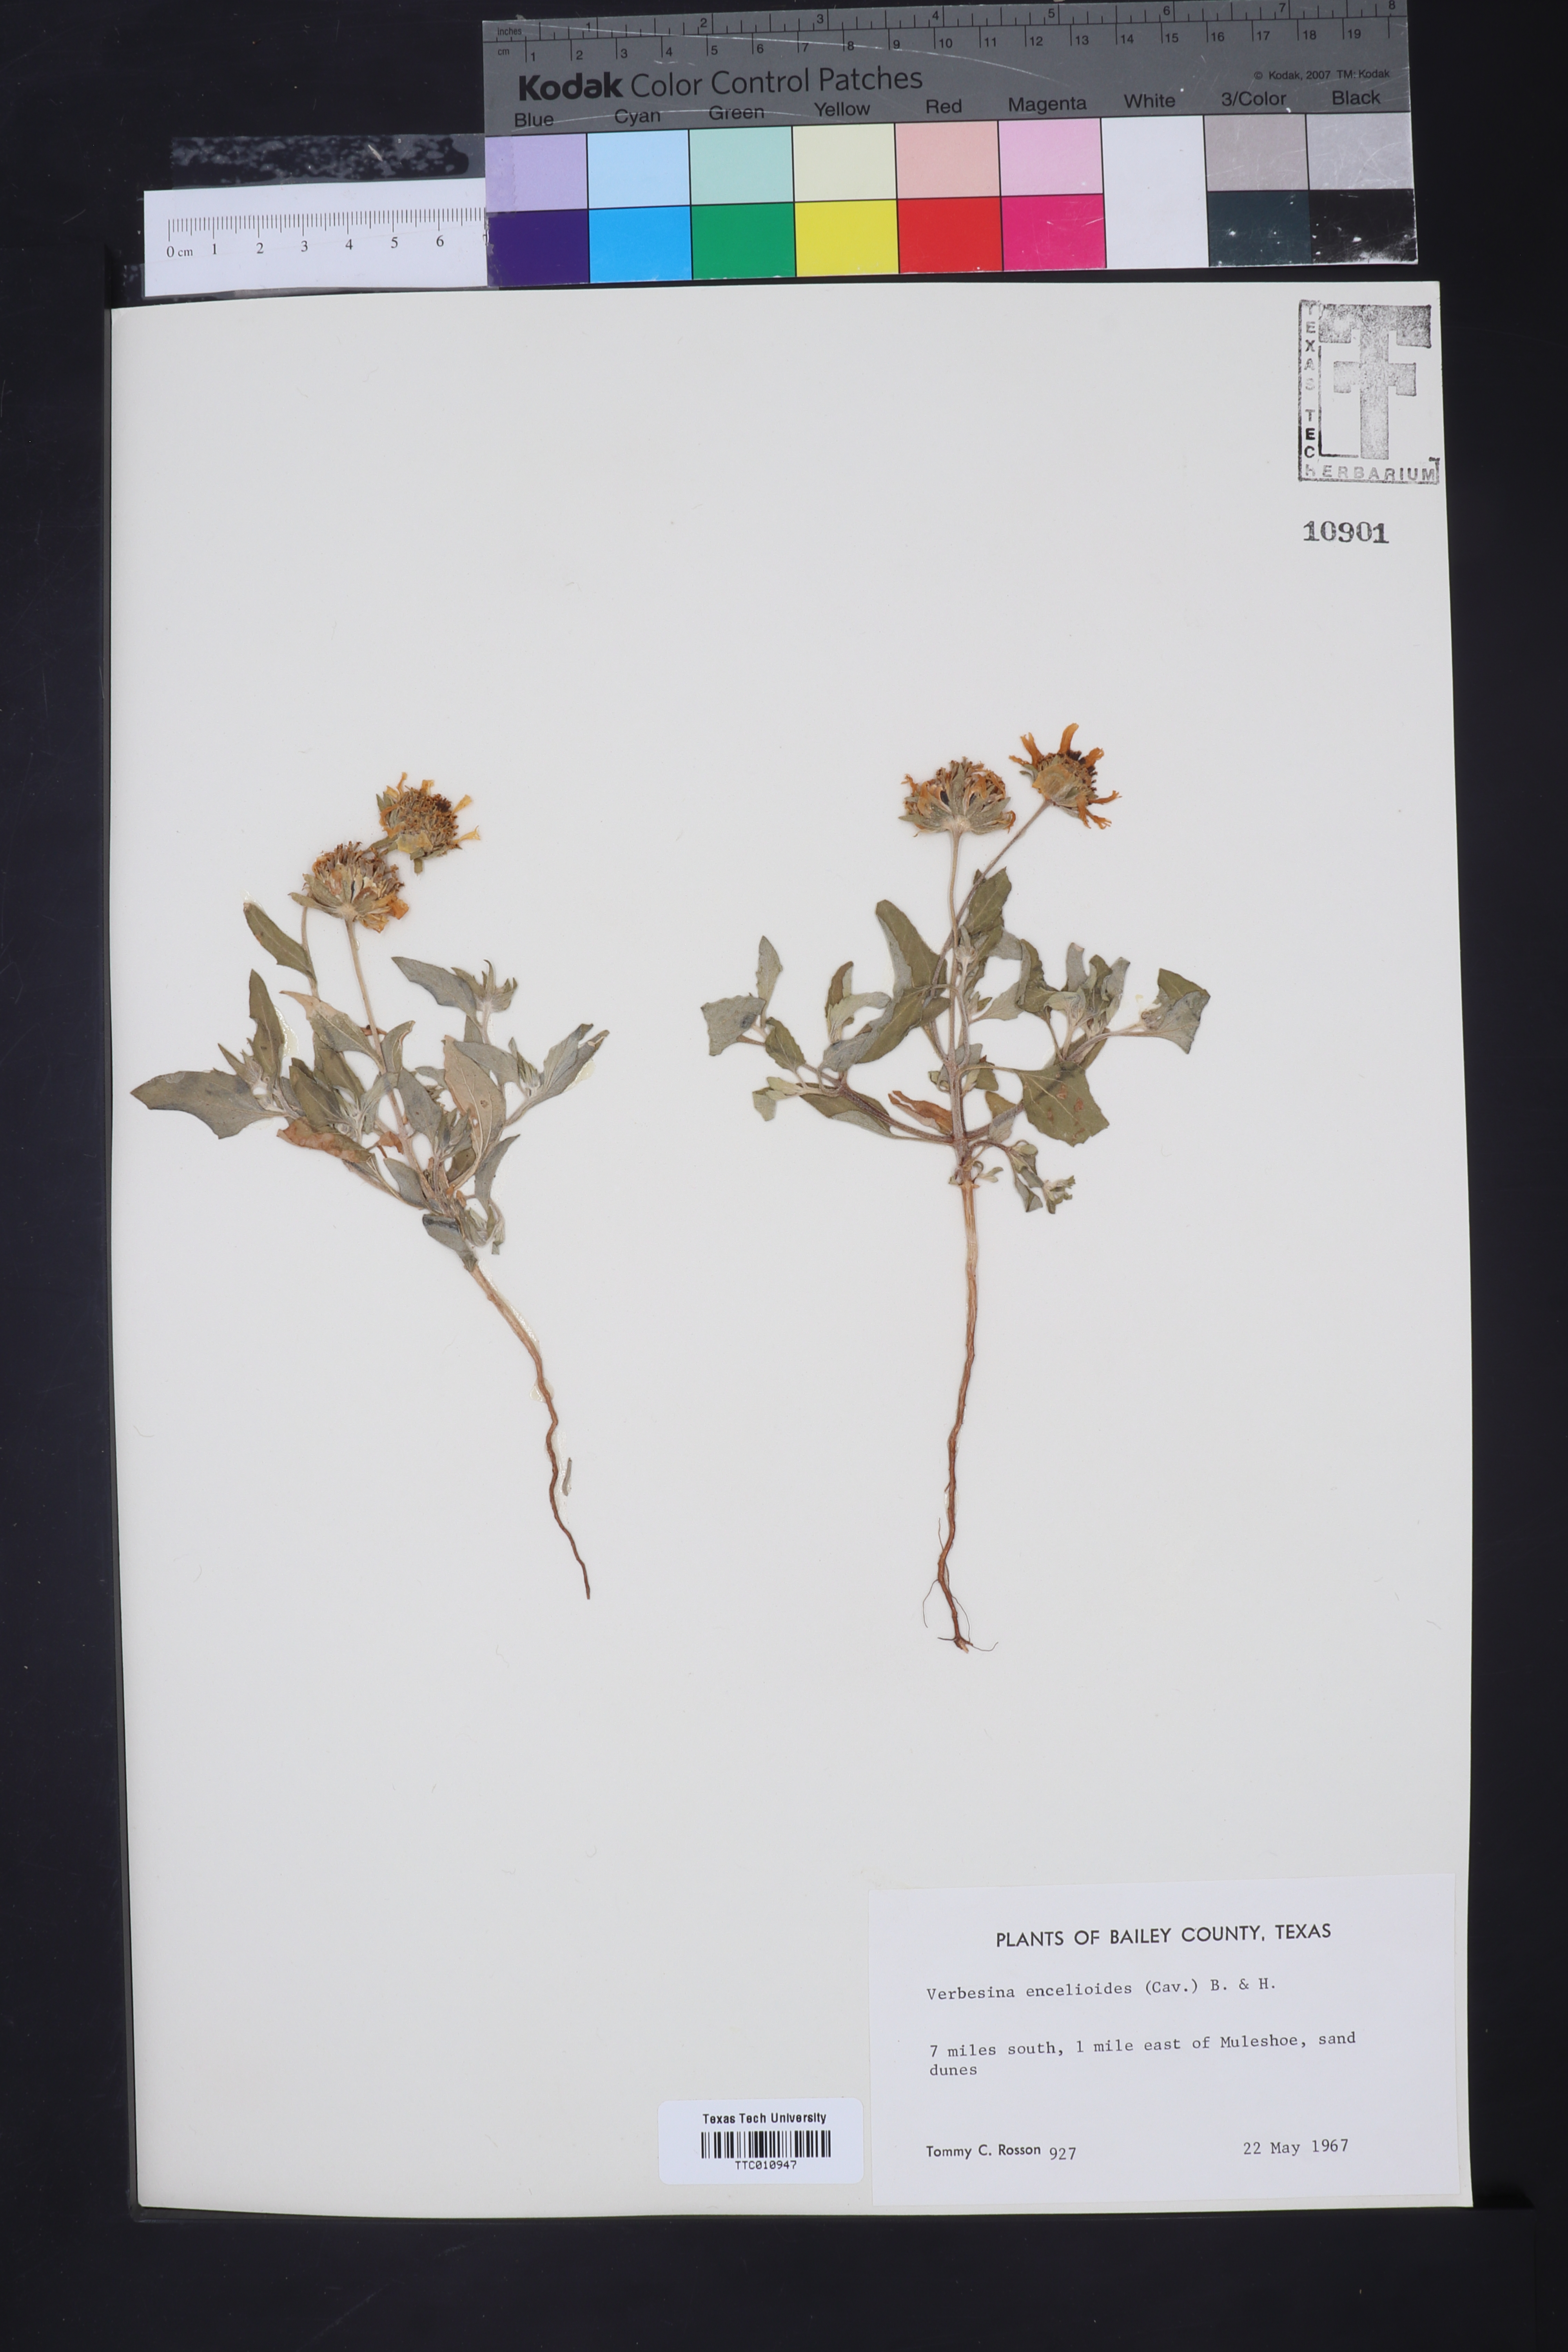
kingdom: Plantae
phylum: Tracheophyta
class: Magnoliopsida
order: Asterales
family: Asteraceae
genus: Verbesina
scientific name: Verbesina encelioides
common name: Golden crownbeard
